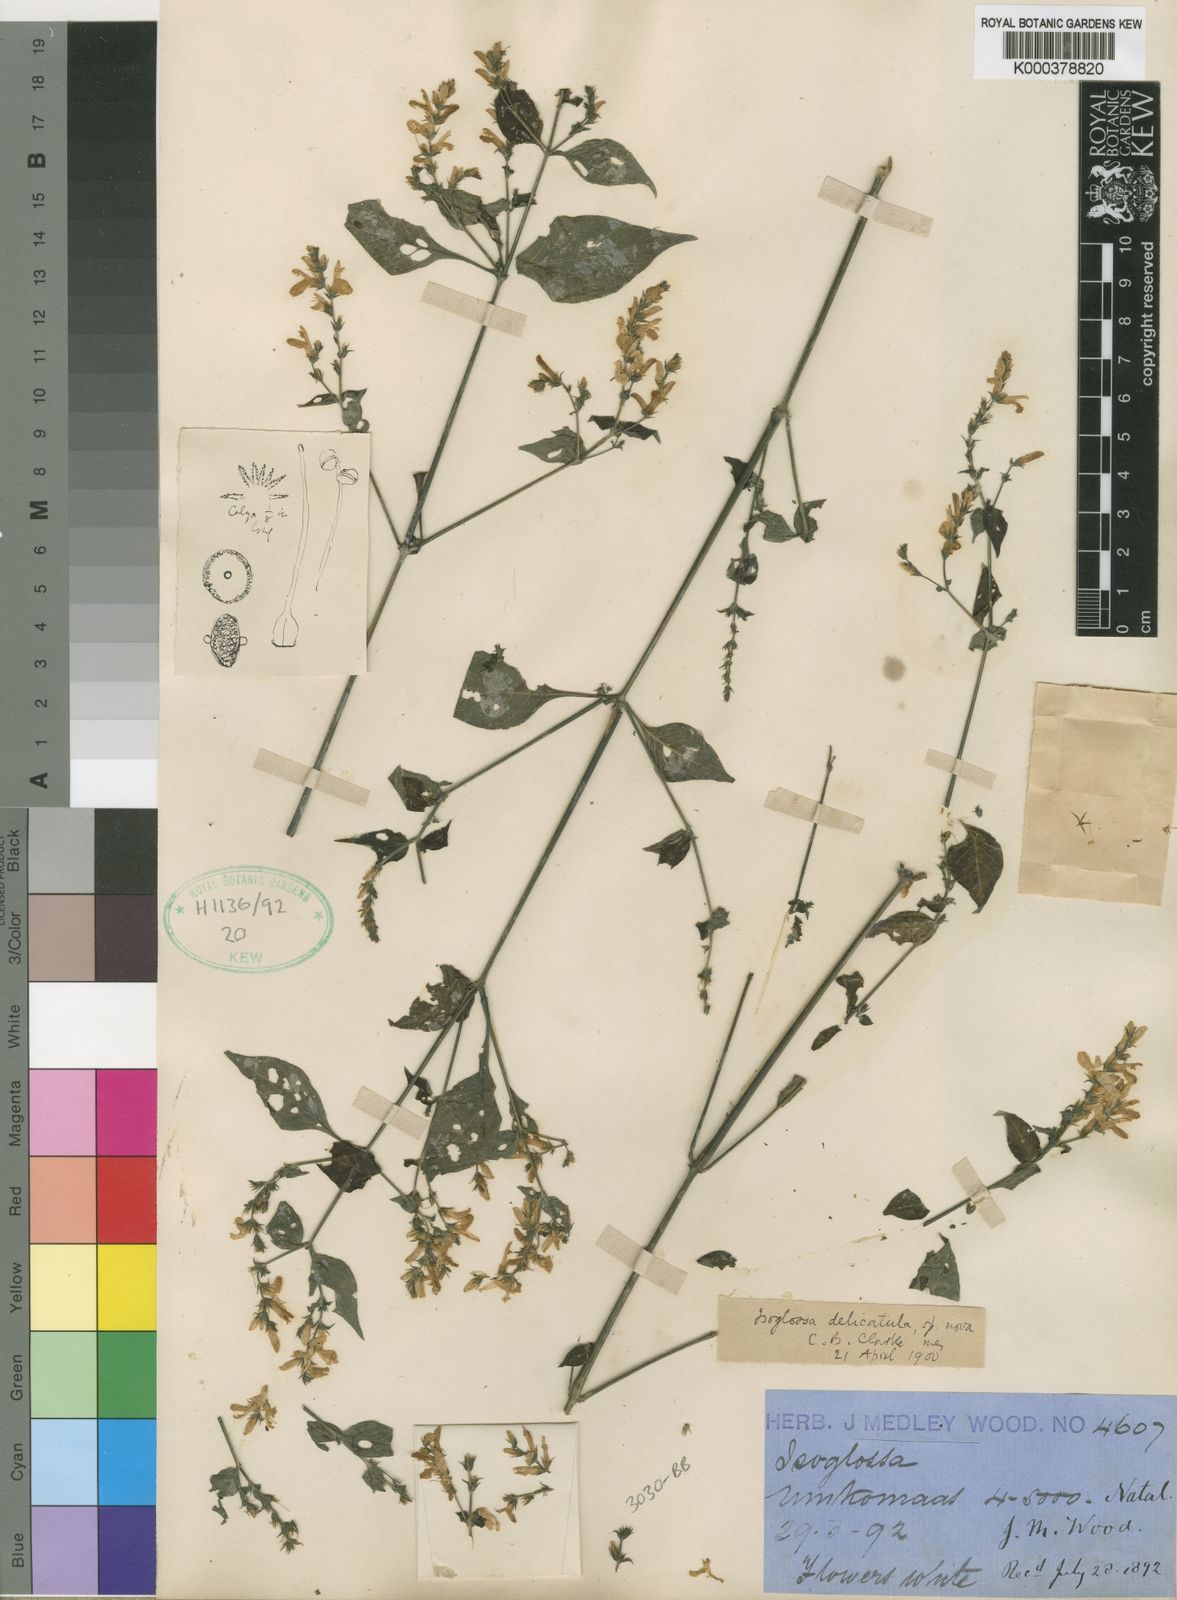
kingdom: Plantae
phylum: Tracheophyta
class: Magnoliopsida
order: Lamiales
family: Acanthaceae
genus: Isoglossa
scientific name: Isoglossa delicatula
